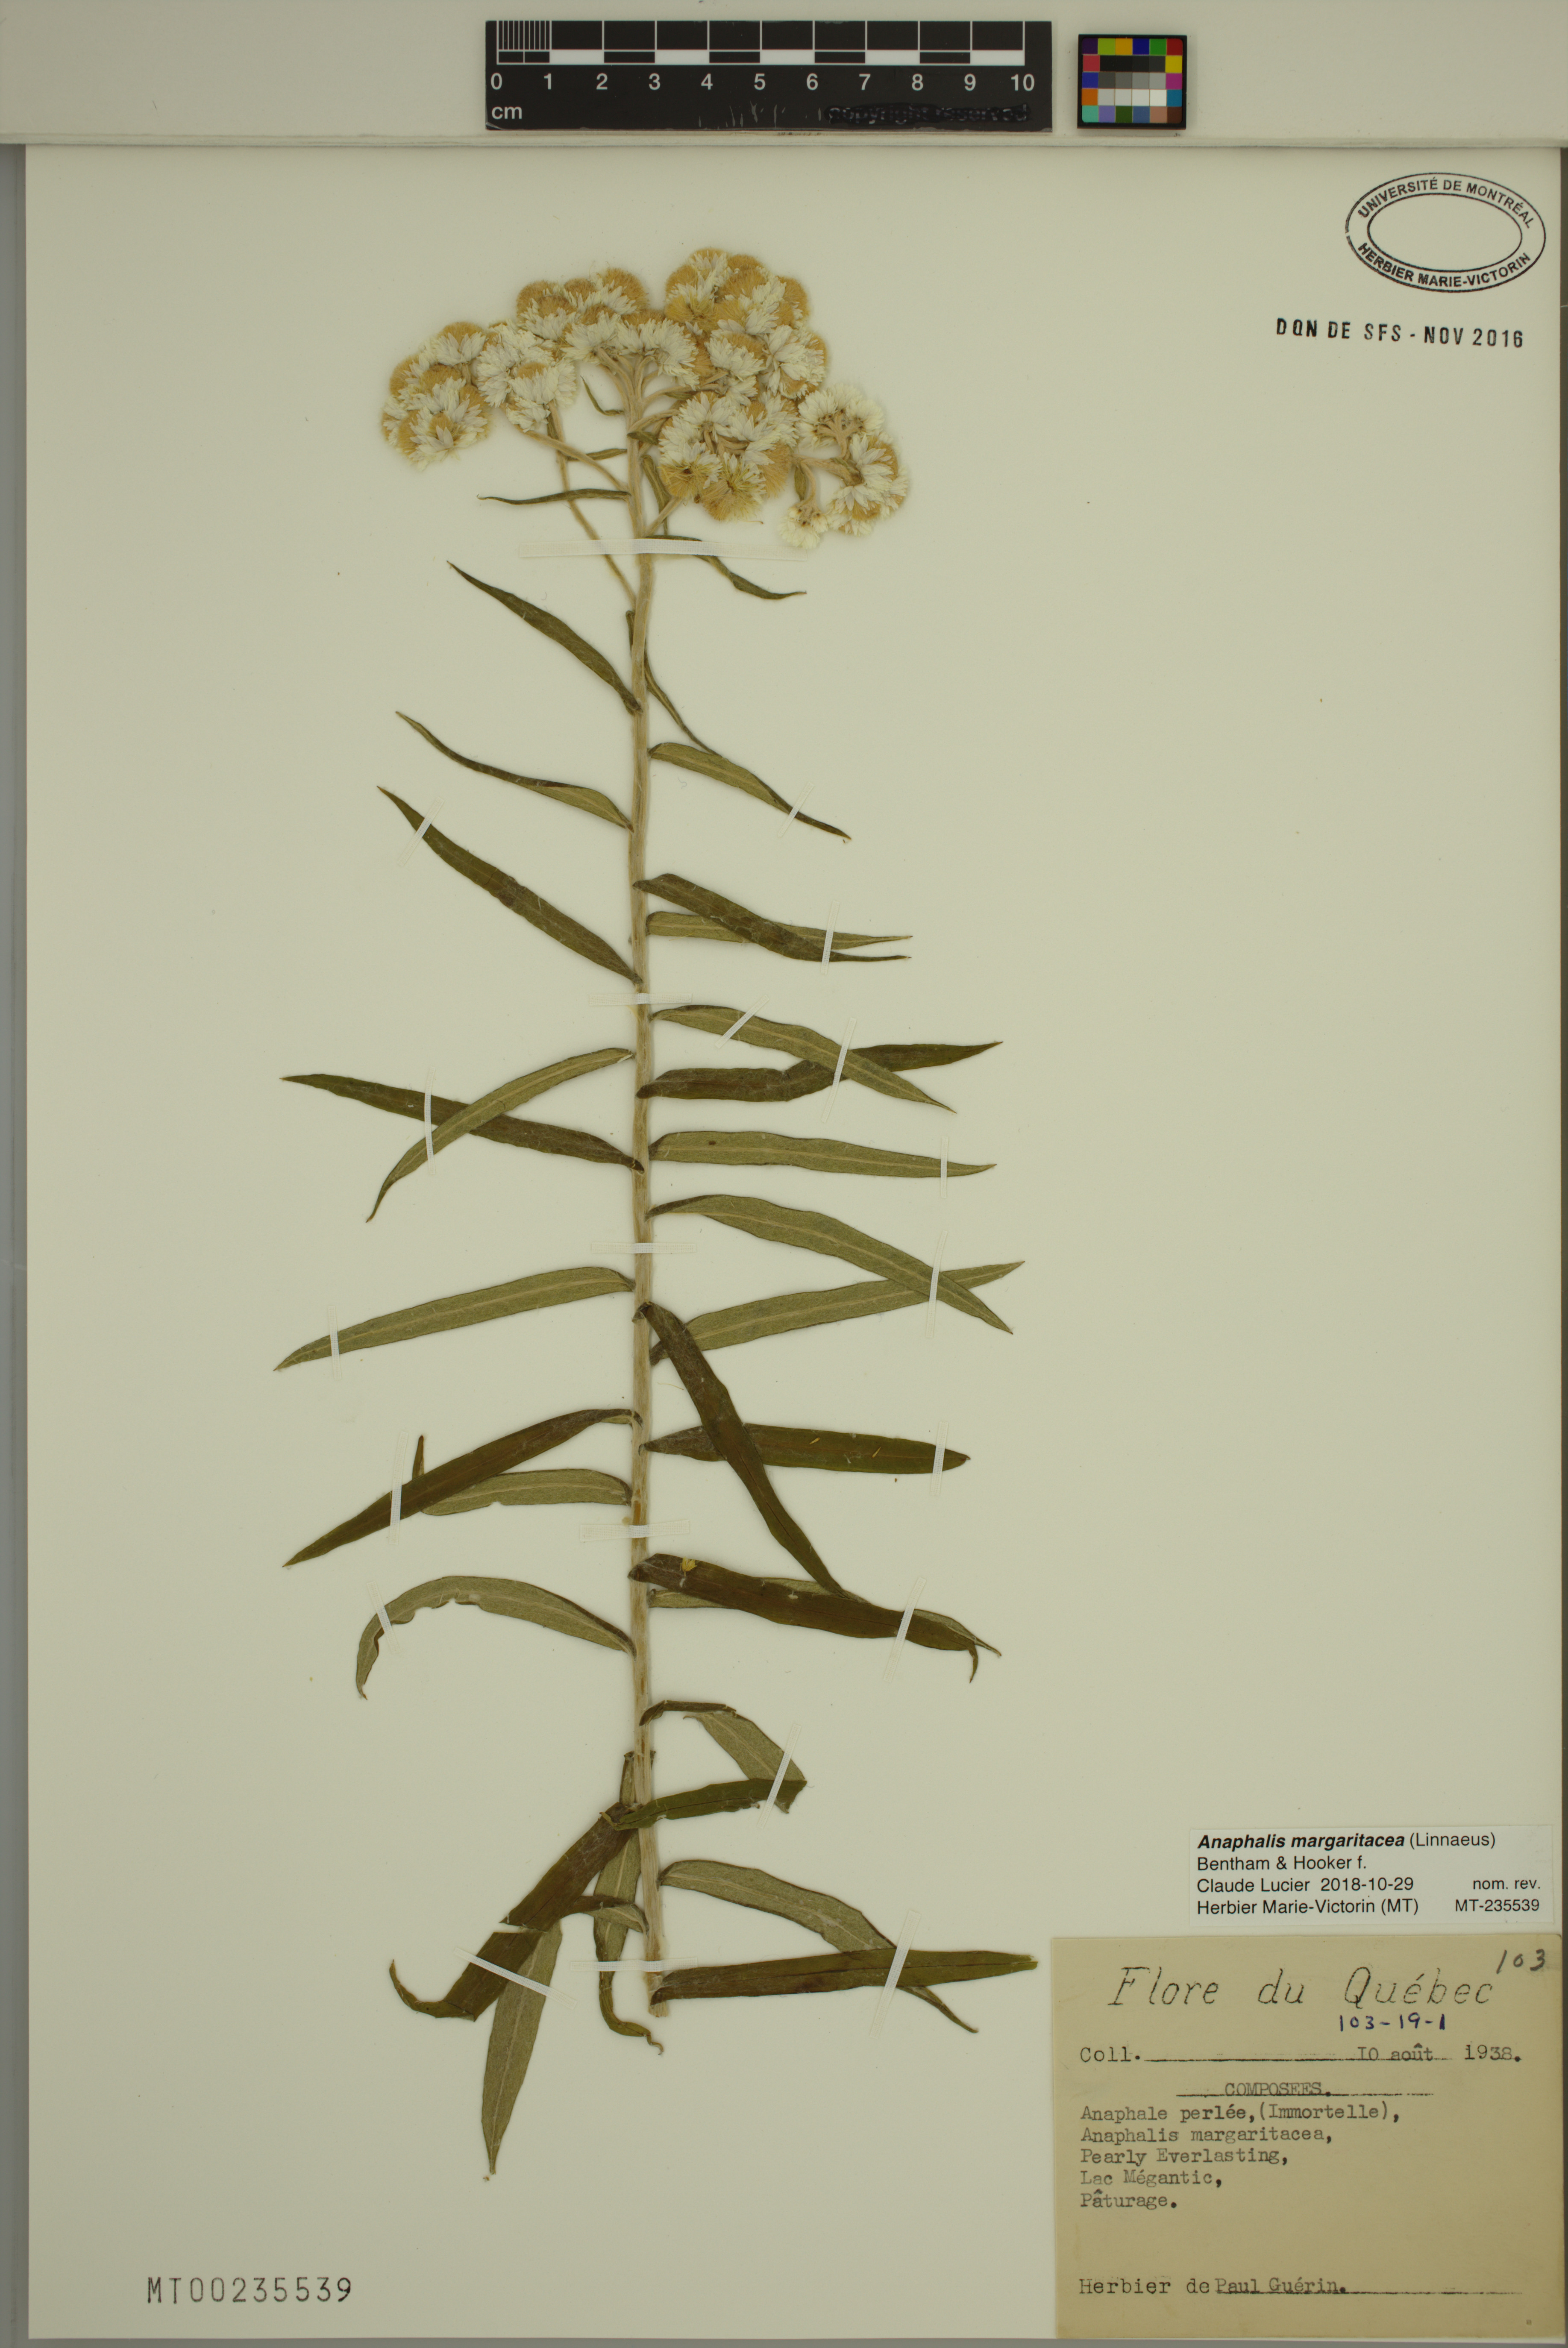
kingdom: Plantae
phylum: Tracheophyta
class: Magnoliopsida
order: Asterales
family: Asteraceae
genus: Anaphalis
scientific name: Anaphalis margaritacea
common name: Pearly everlasting
